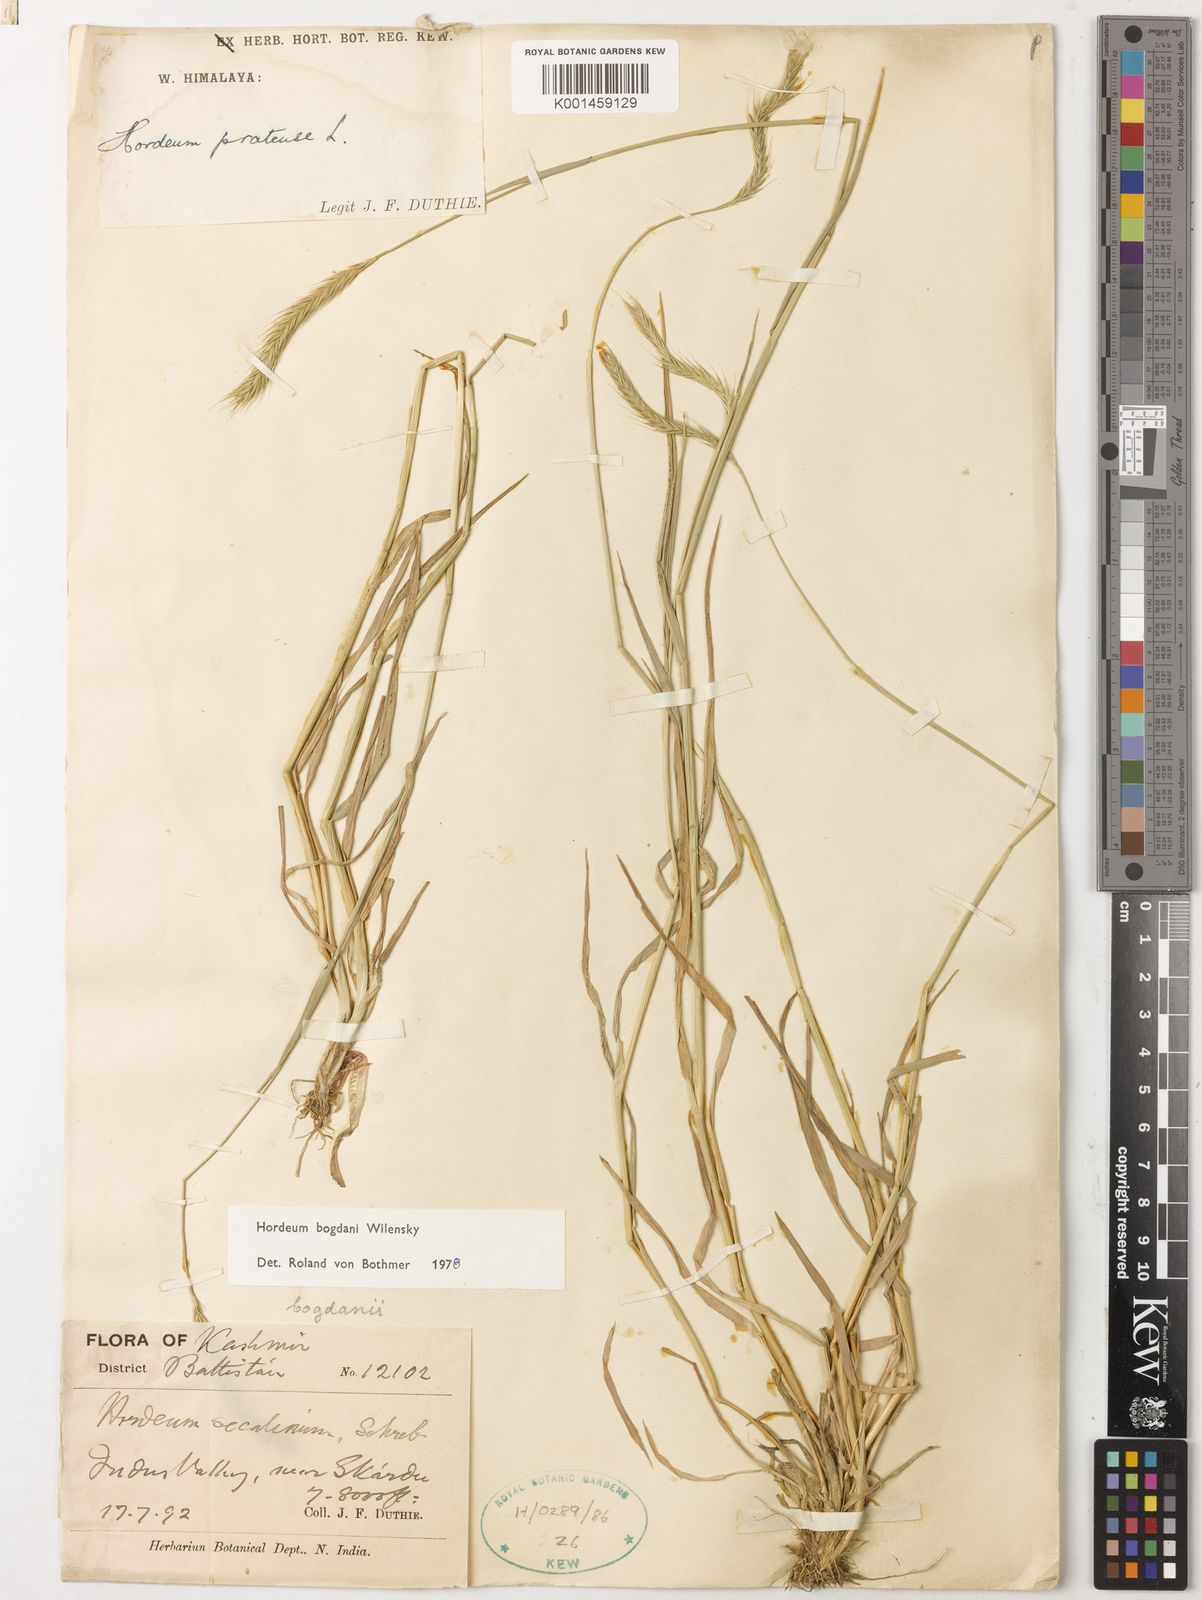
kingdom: Plantae
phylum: Tracheophyta
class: Liliopsida
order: Poales
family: Poaceae
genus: Hordeum
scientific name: Hordeum bogdanii
